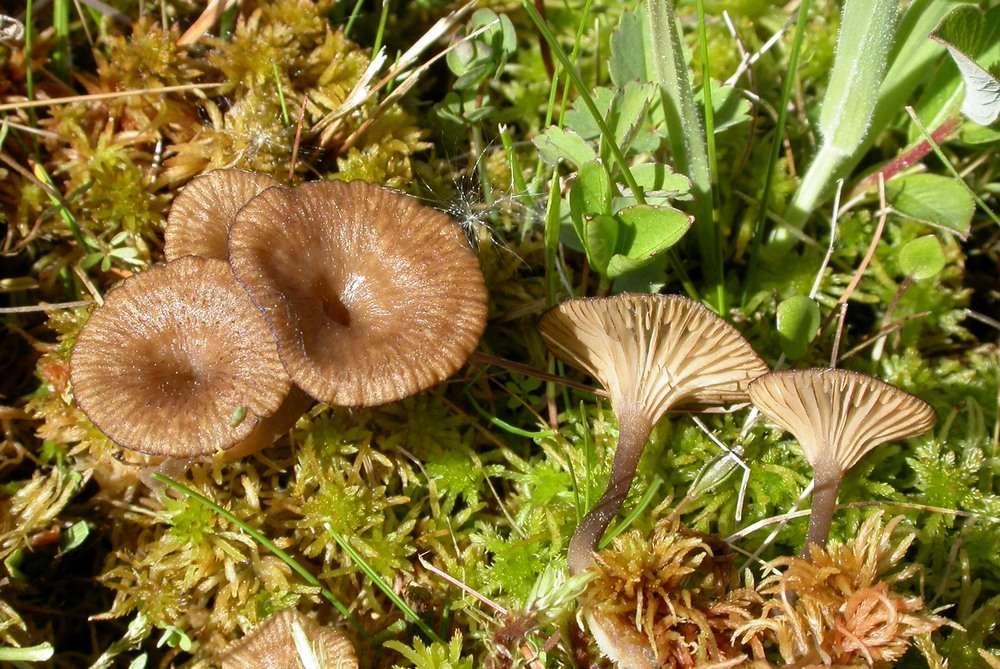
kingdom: Fungi
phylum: Basidiomycota
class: Agaricomycetes
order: Agaricales
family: Hygrophoraceae
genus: Arrhenia
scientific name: Arrhenia gerardiana
